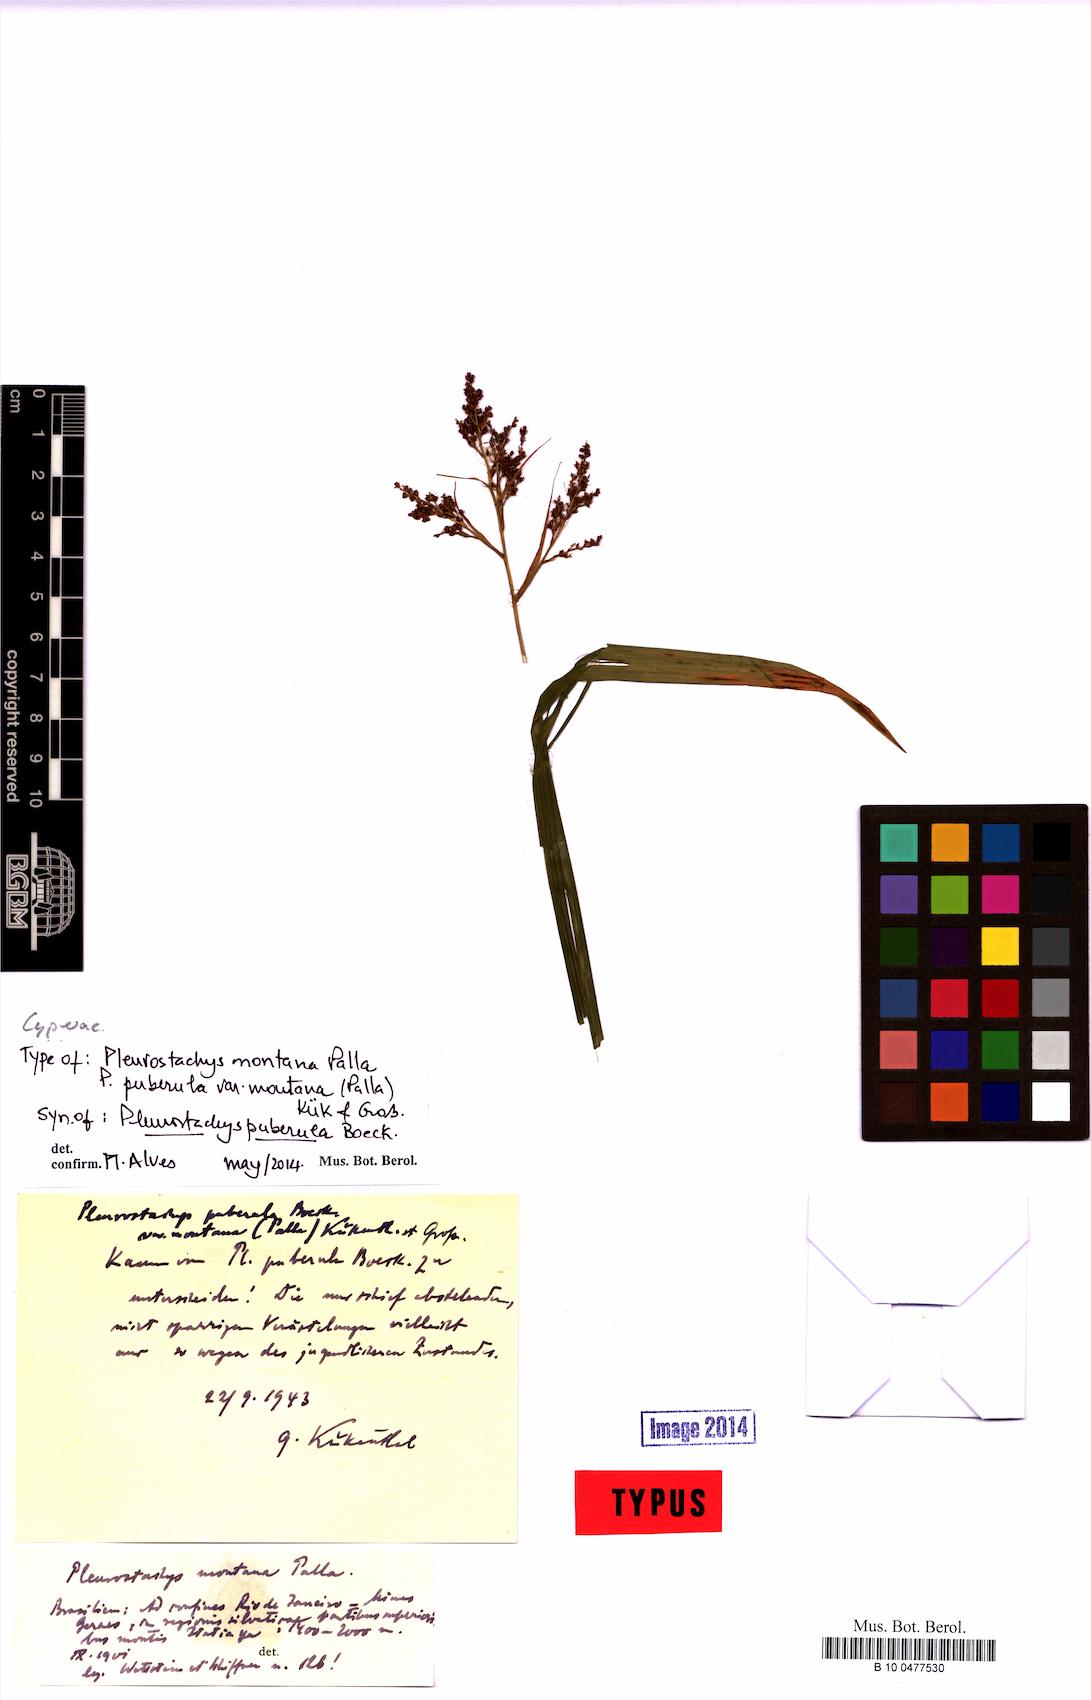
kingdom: Plantae
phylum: Tracheophyta
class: Liliopsida
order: Poales
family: Cyperaceae
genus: Rhynchospora
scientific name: Rhynchospora orbignyana
